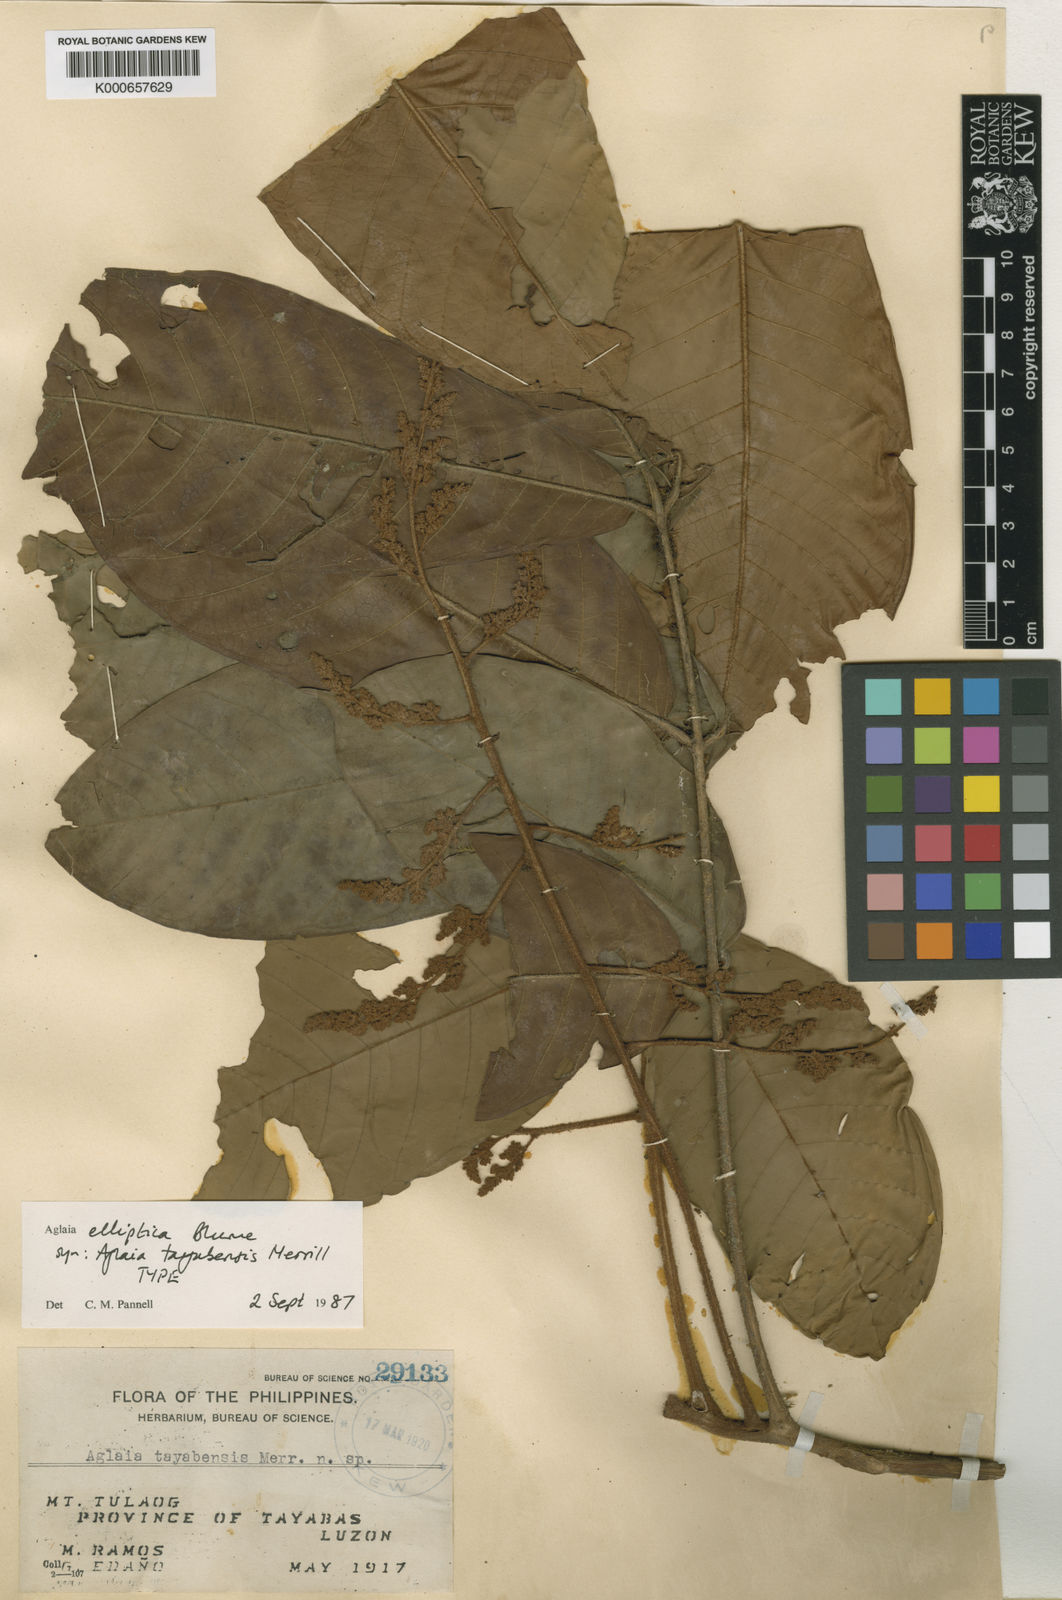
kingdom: Plantae
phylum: Tracheophyta
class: Magnoliopsida
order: Sapindales
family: Meliaceae
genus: Aglaia
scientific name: Aglaia elliptica
